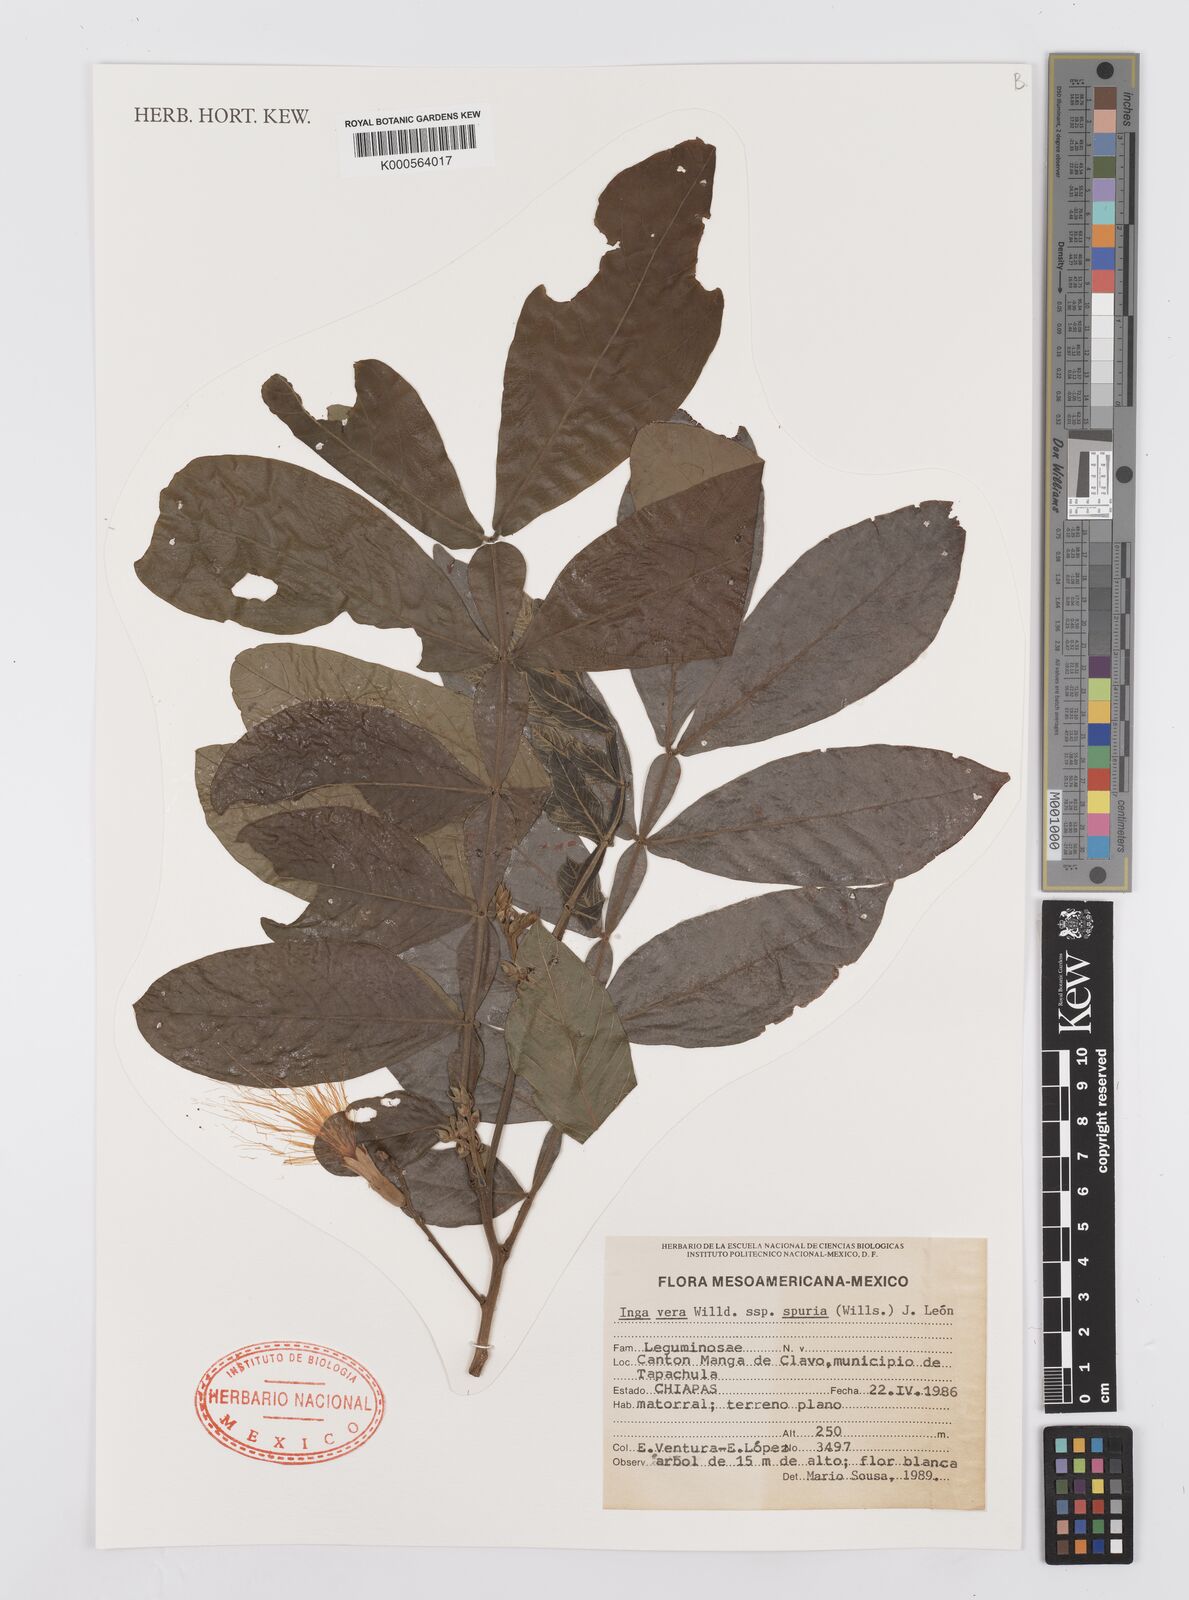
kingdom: Plantae
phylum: Tracheophyta
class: Magnoliopsida
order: Fabales
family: Fabaceae
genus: Inga
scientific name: Inga vera
